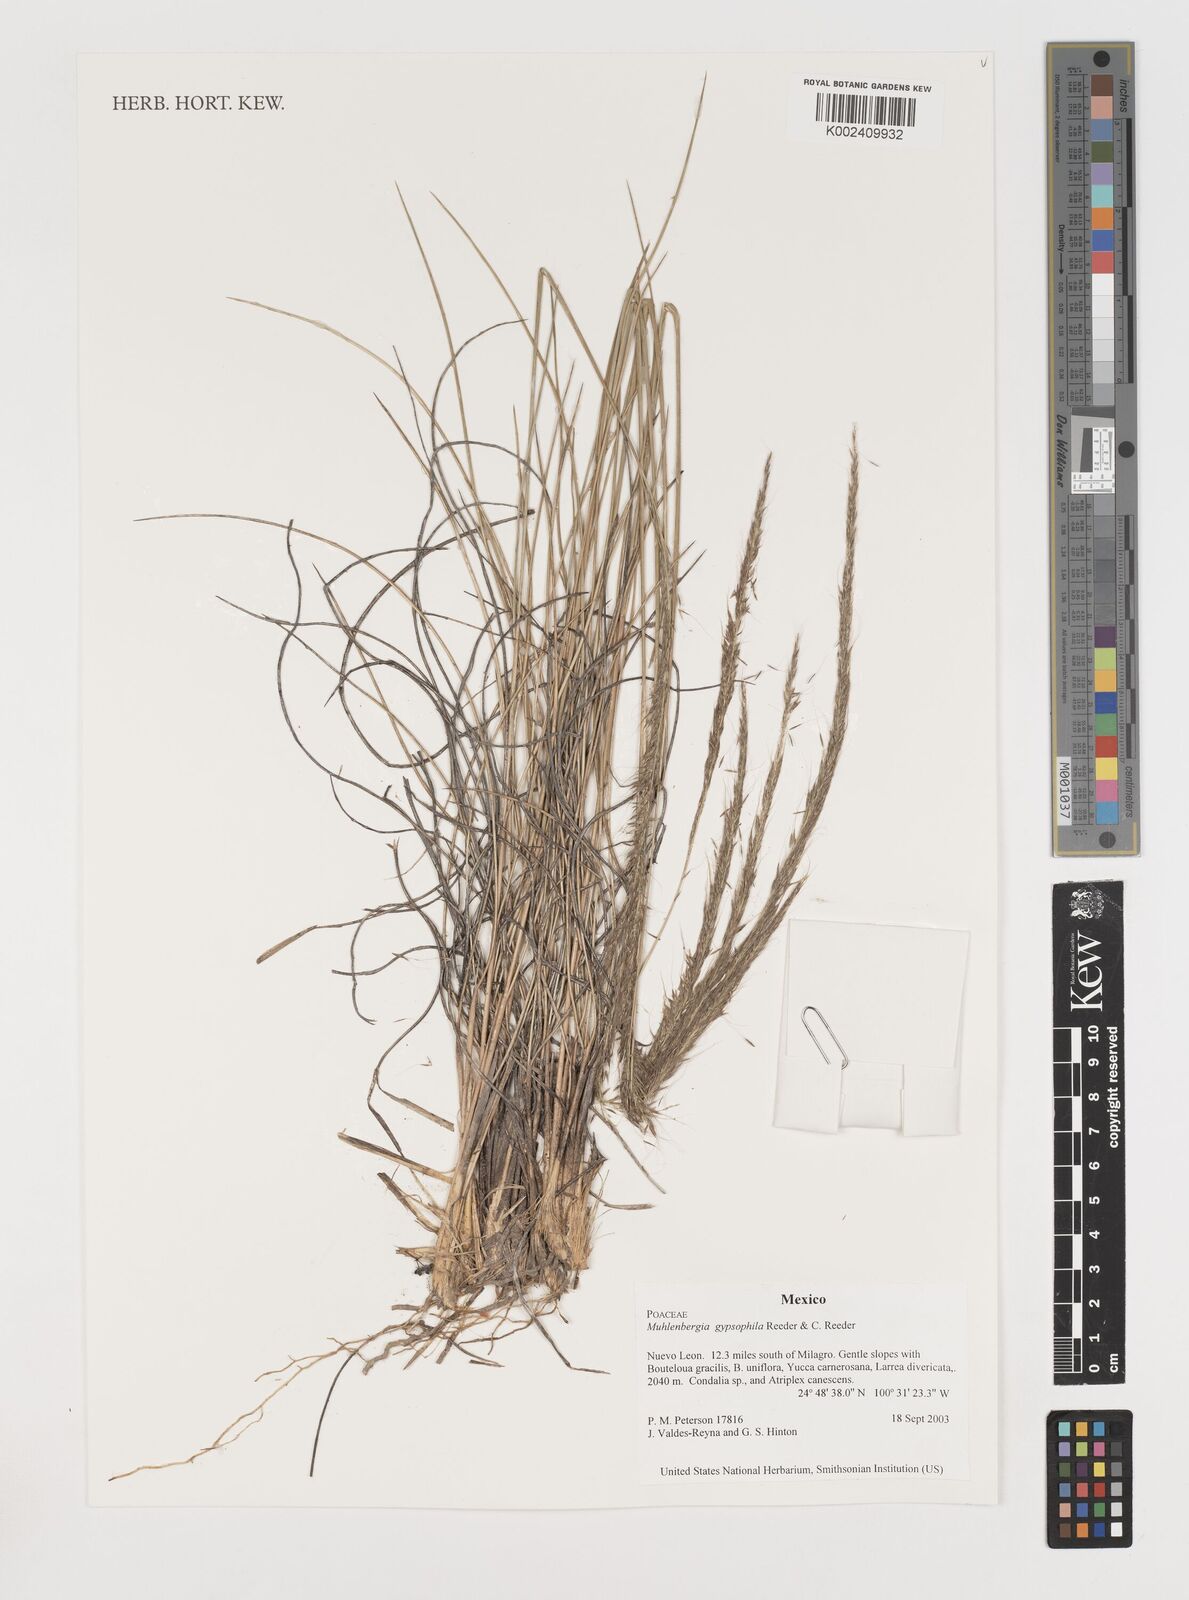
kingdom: Plantae
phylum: Tracheophyta
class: Liliopsida
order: Poales
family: Poaceae
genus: Muhlenbergia
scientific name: Muhlenbergia gypsophila
